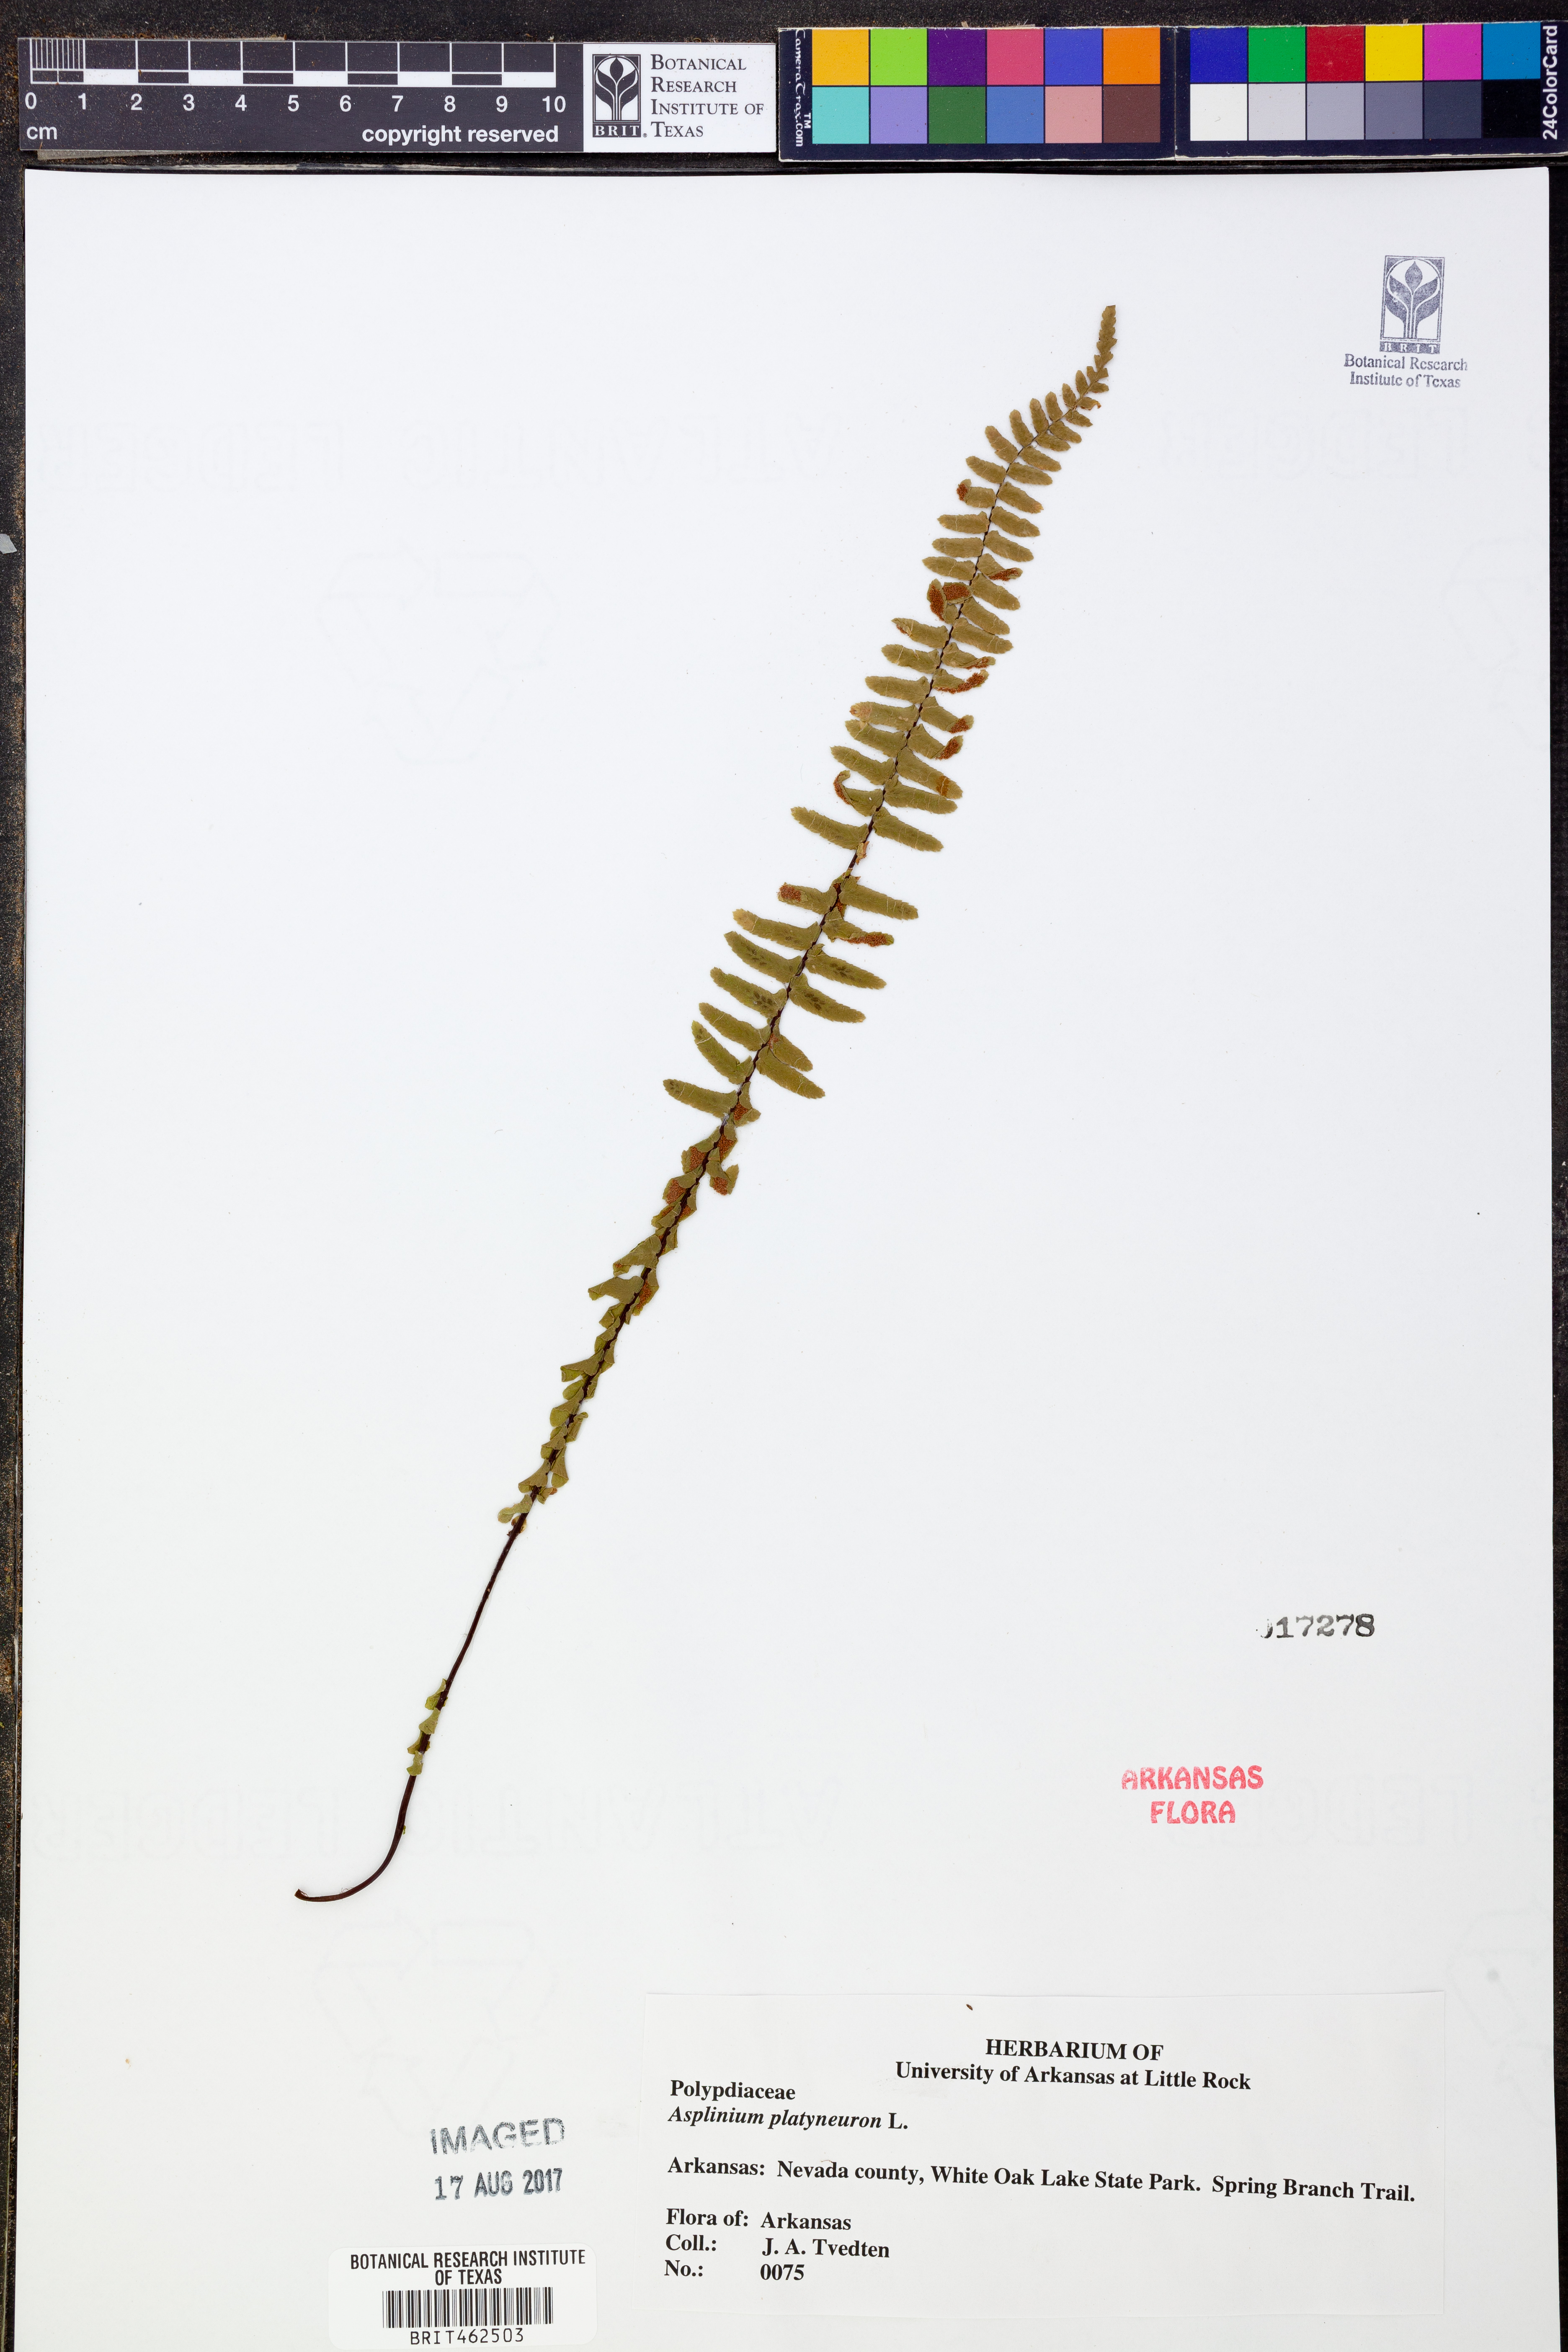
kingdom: Plantae
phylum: Tracheophyta
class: Polypodiopsida
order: Polypodiales
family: Aspleniaceae
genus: Asplenium
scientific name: Asplenium platyneuron
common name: Ebony spleenwort
